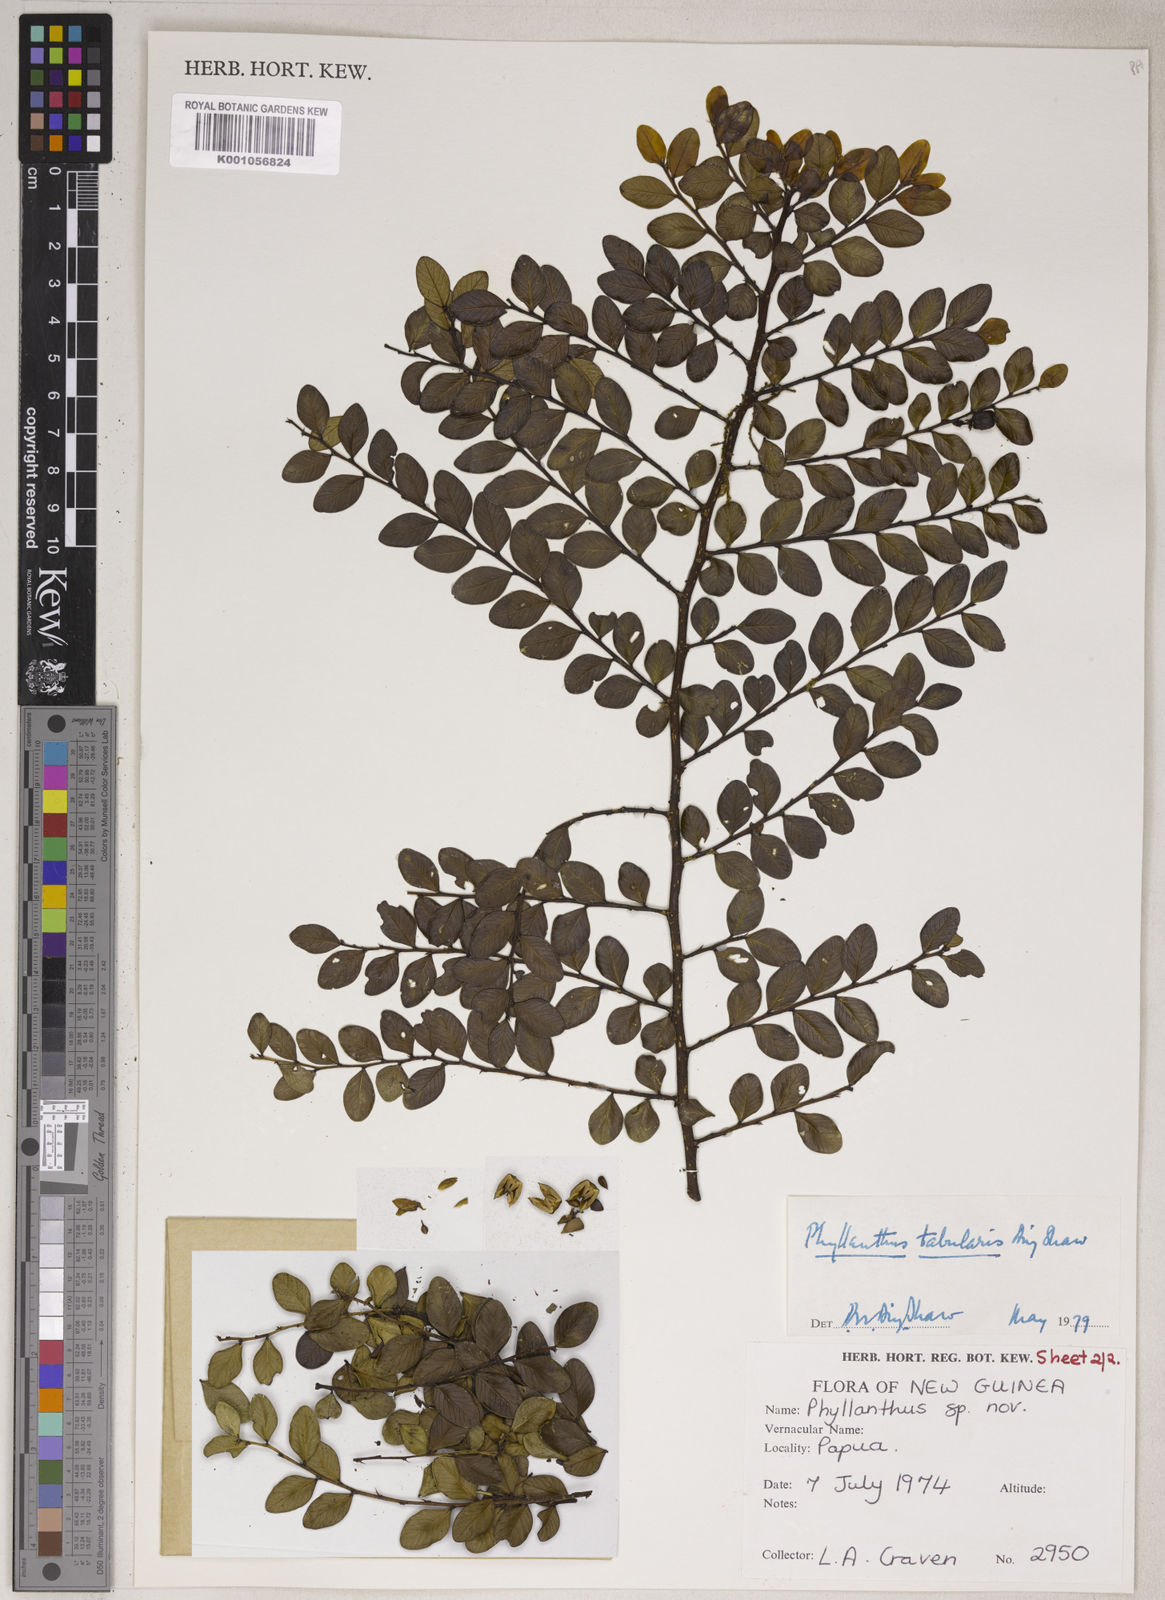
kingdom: Plantae
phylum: Tracheophyta
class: Magnoliopsida
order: Malpighiales
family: Phyllanthaceae
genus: Phyllanthus
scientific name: Phyllanthus tabularis
